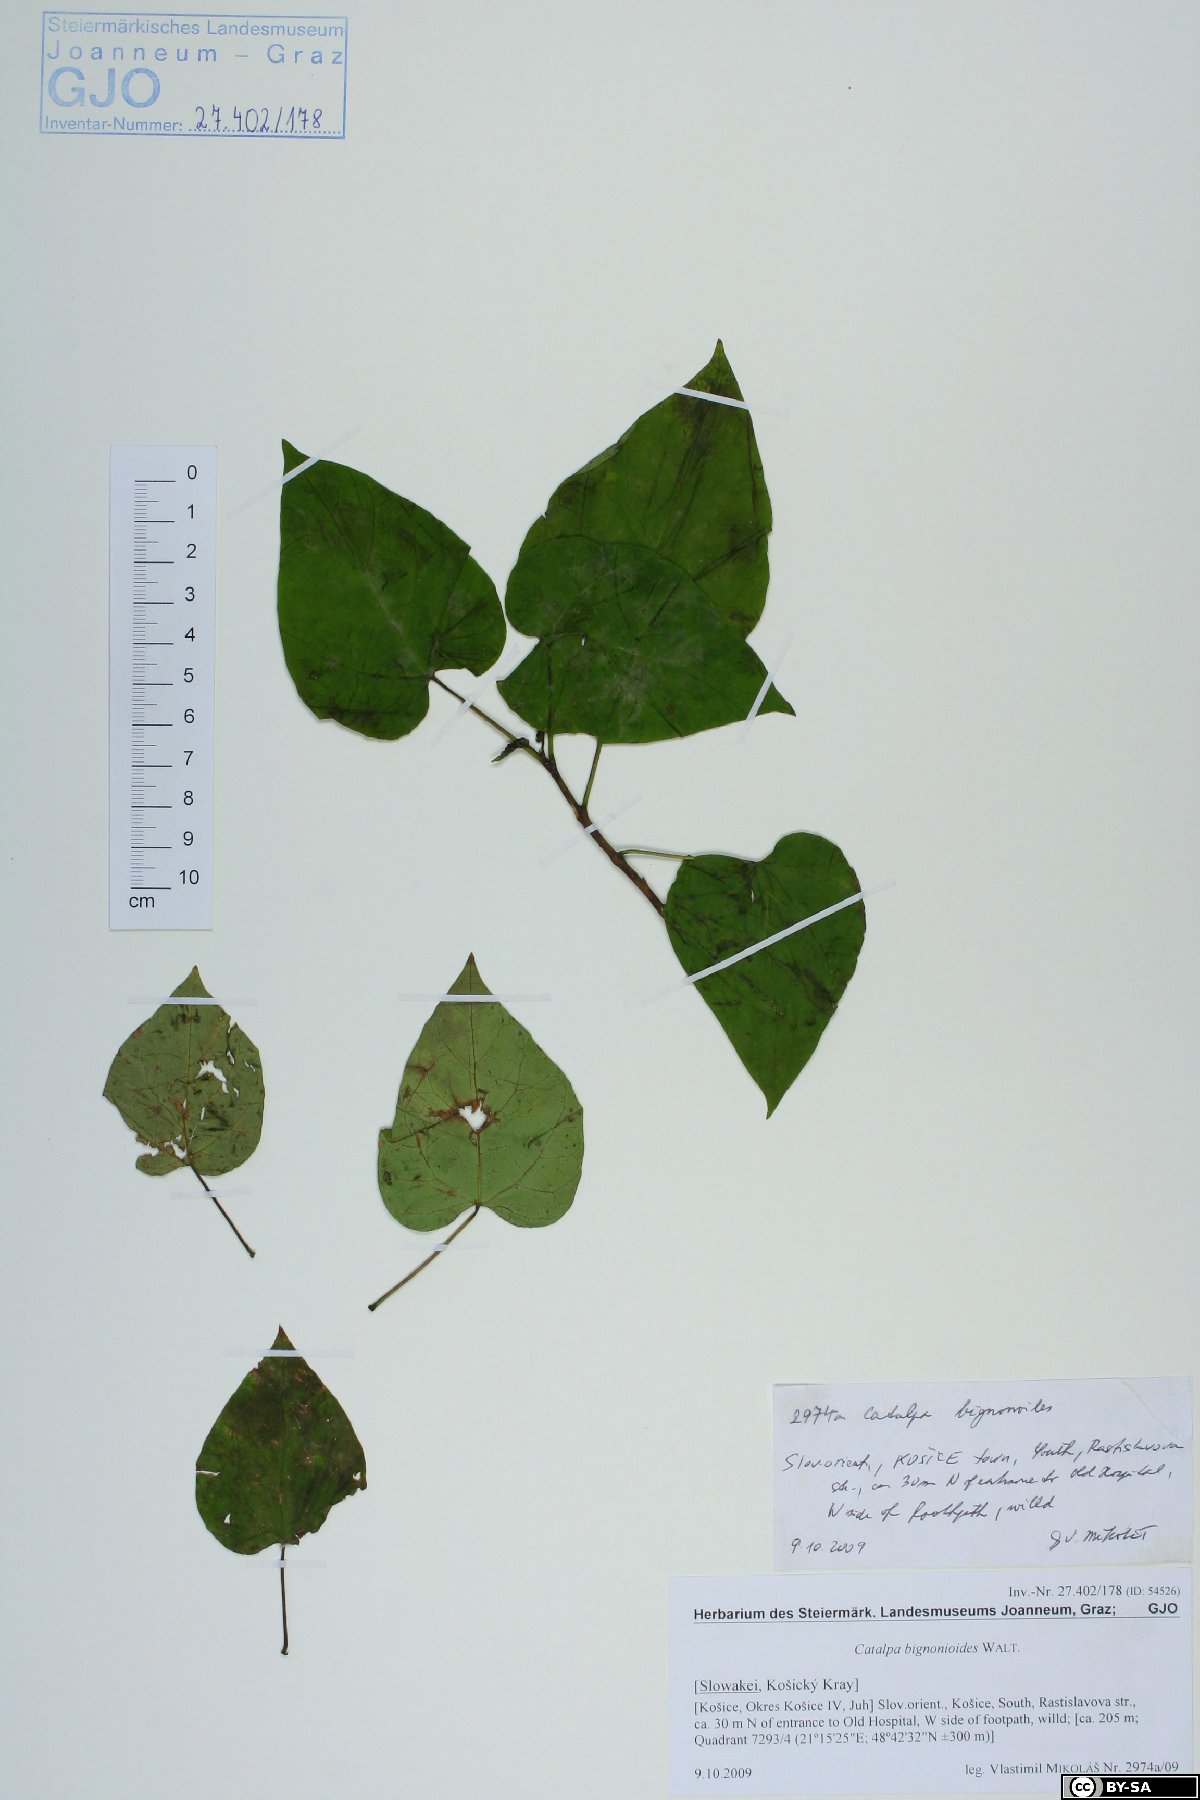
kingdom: Plantae
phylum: Tracheophyta
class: Magnoliopsida
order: Lamiales
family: Bignoniaceae
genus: Catalpa
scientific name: Catalpa bignonioides
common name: Southern catalpa
